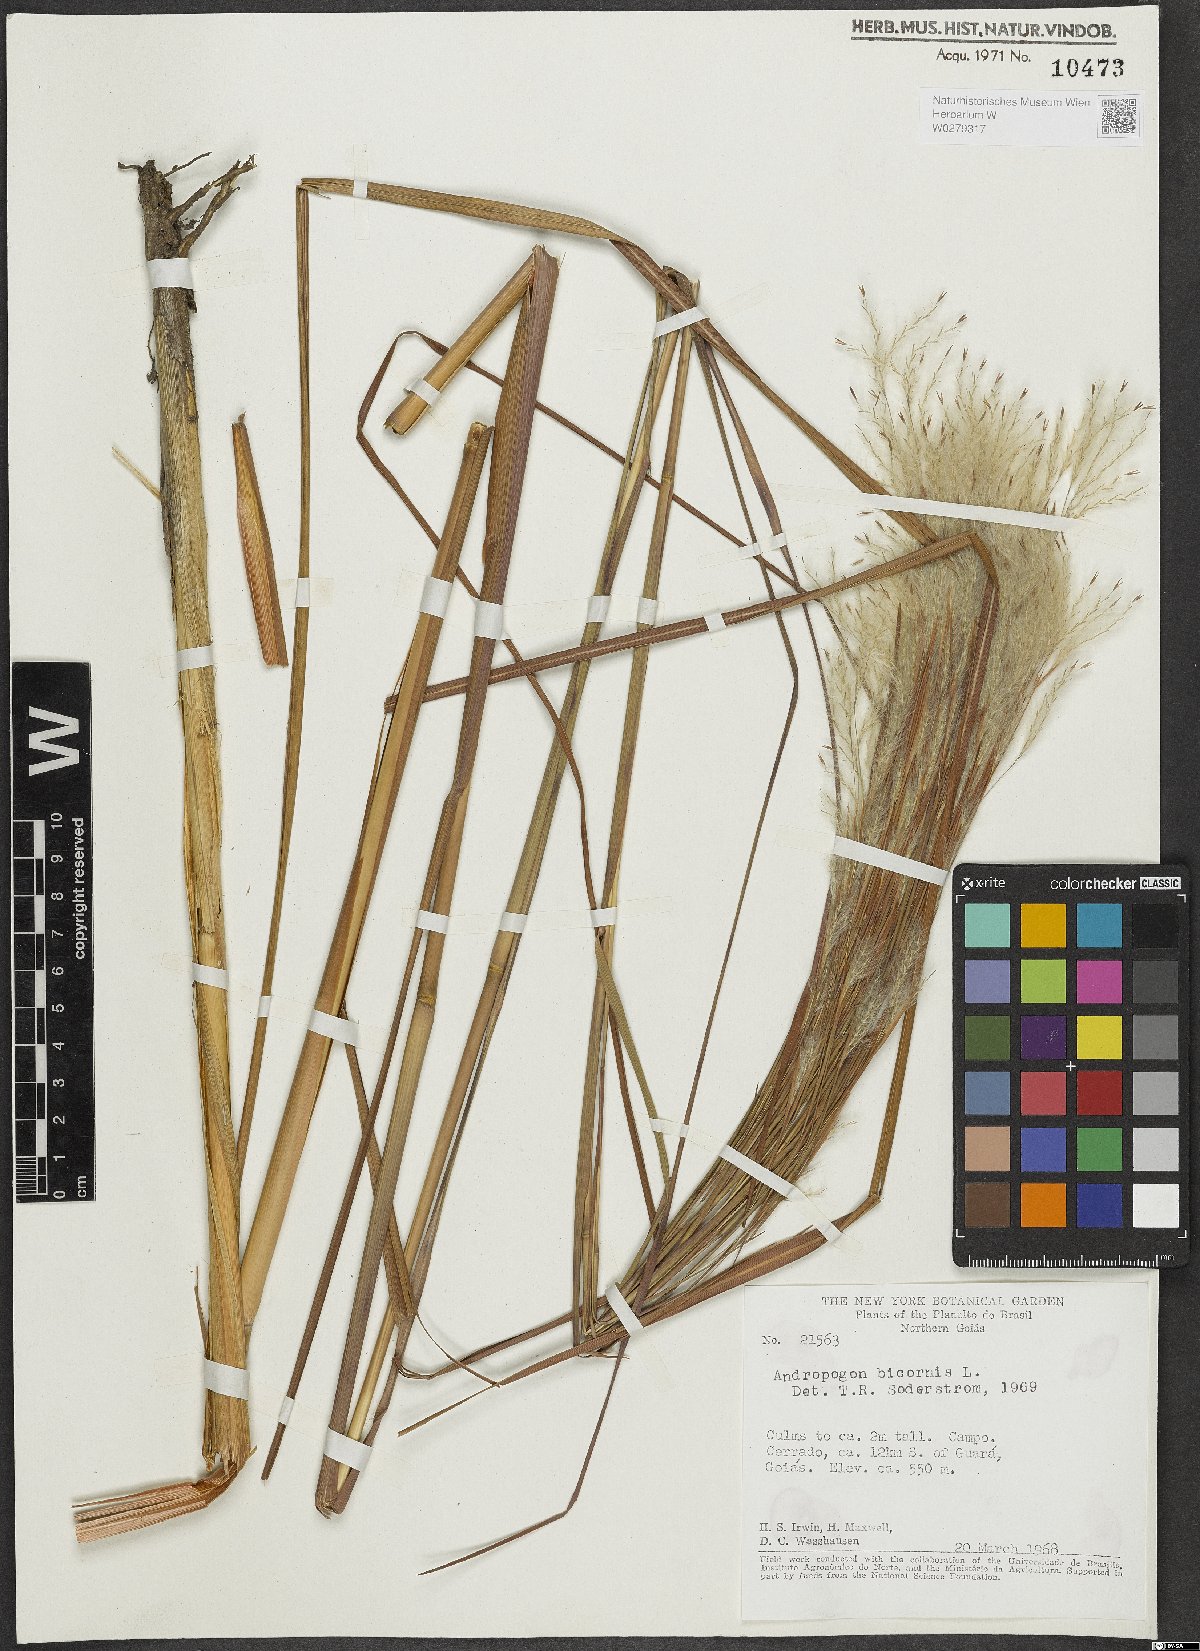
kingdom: Plantae
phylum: Tracheophyta
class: Liliopsida
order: Poales
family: Poaceae
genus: Andropogon
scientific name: Andropogon bicornis
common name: West indian foxtail grass
